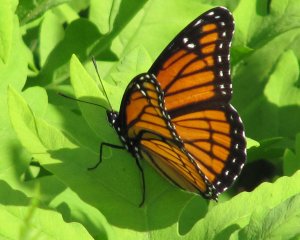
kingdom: Animalia
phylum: Arthropoda
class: Insecta
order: Lepidoptera
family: Nymphalidae
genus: Limenitis
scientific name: Limenitis archippus
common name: Viceroy
